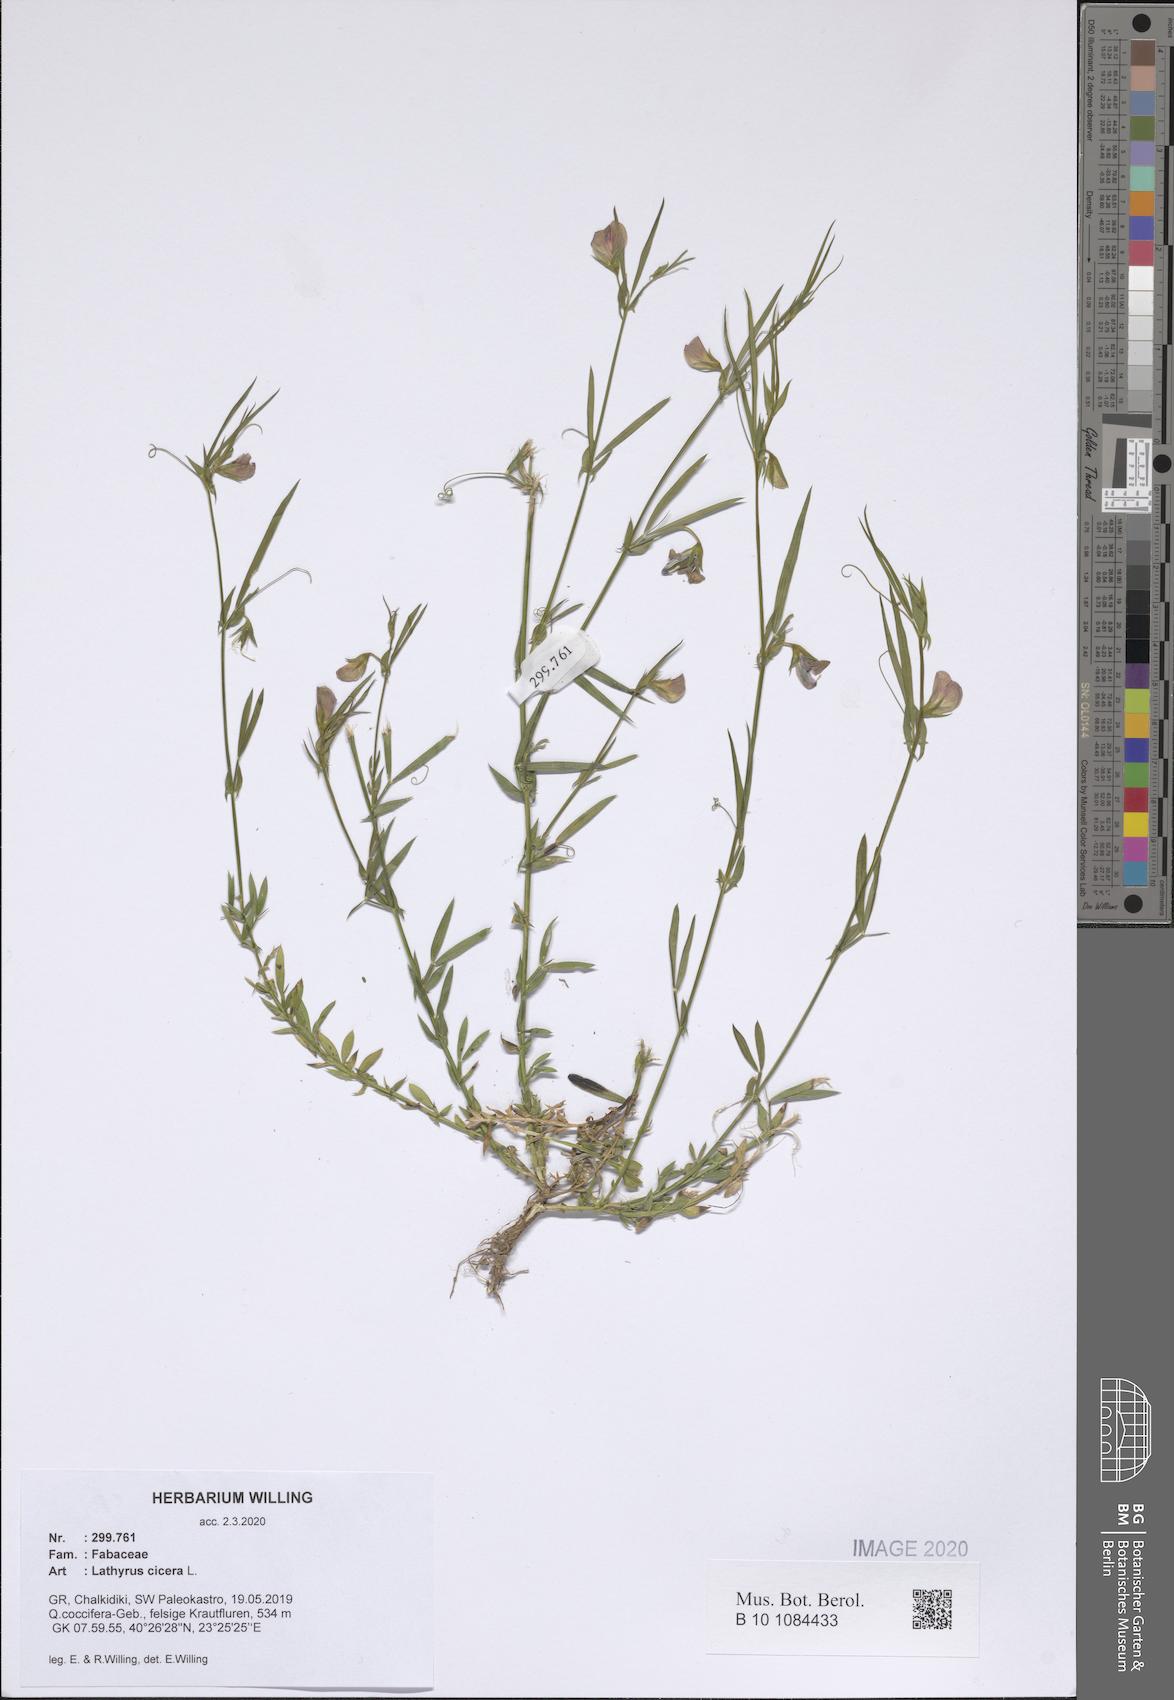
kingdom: Plantae
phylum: Tracheophyta
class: Magnoliopsida
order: Fabales
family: Fabaceae
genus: Lathyrus
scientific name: Lathyrus cicera
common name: Red vetchling
